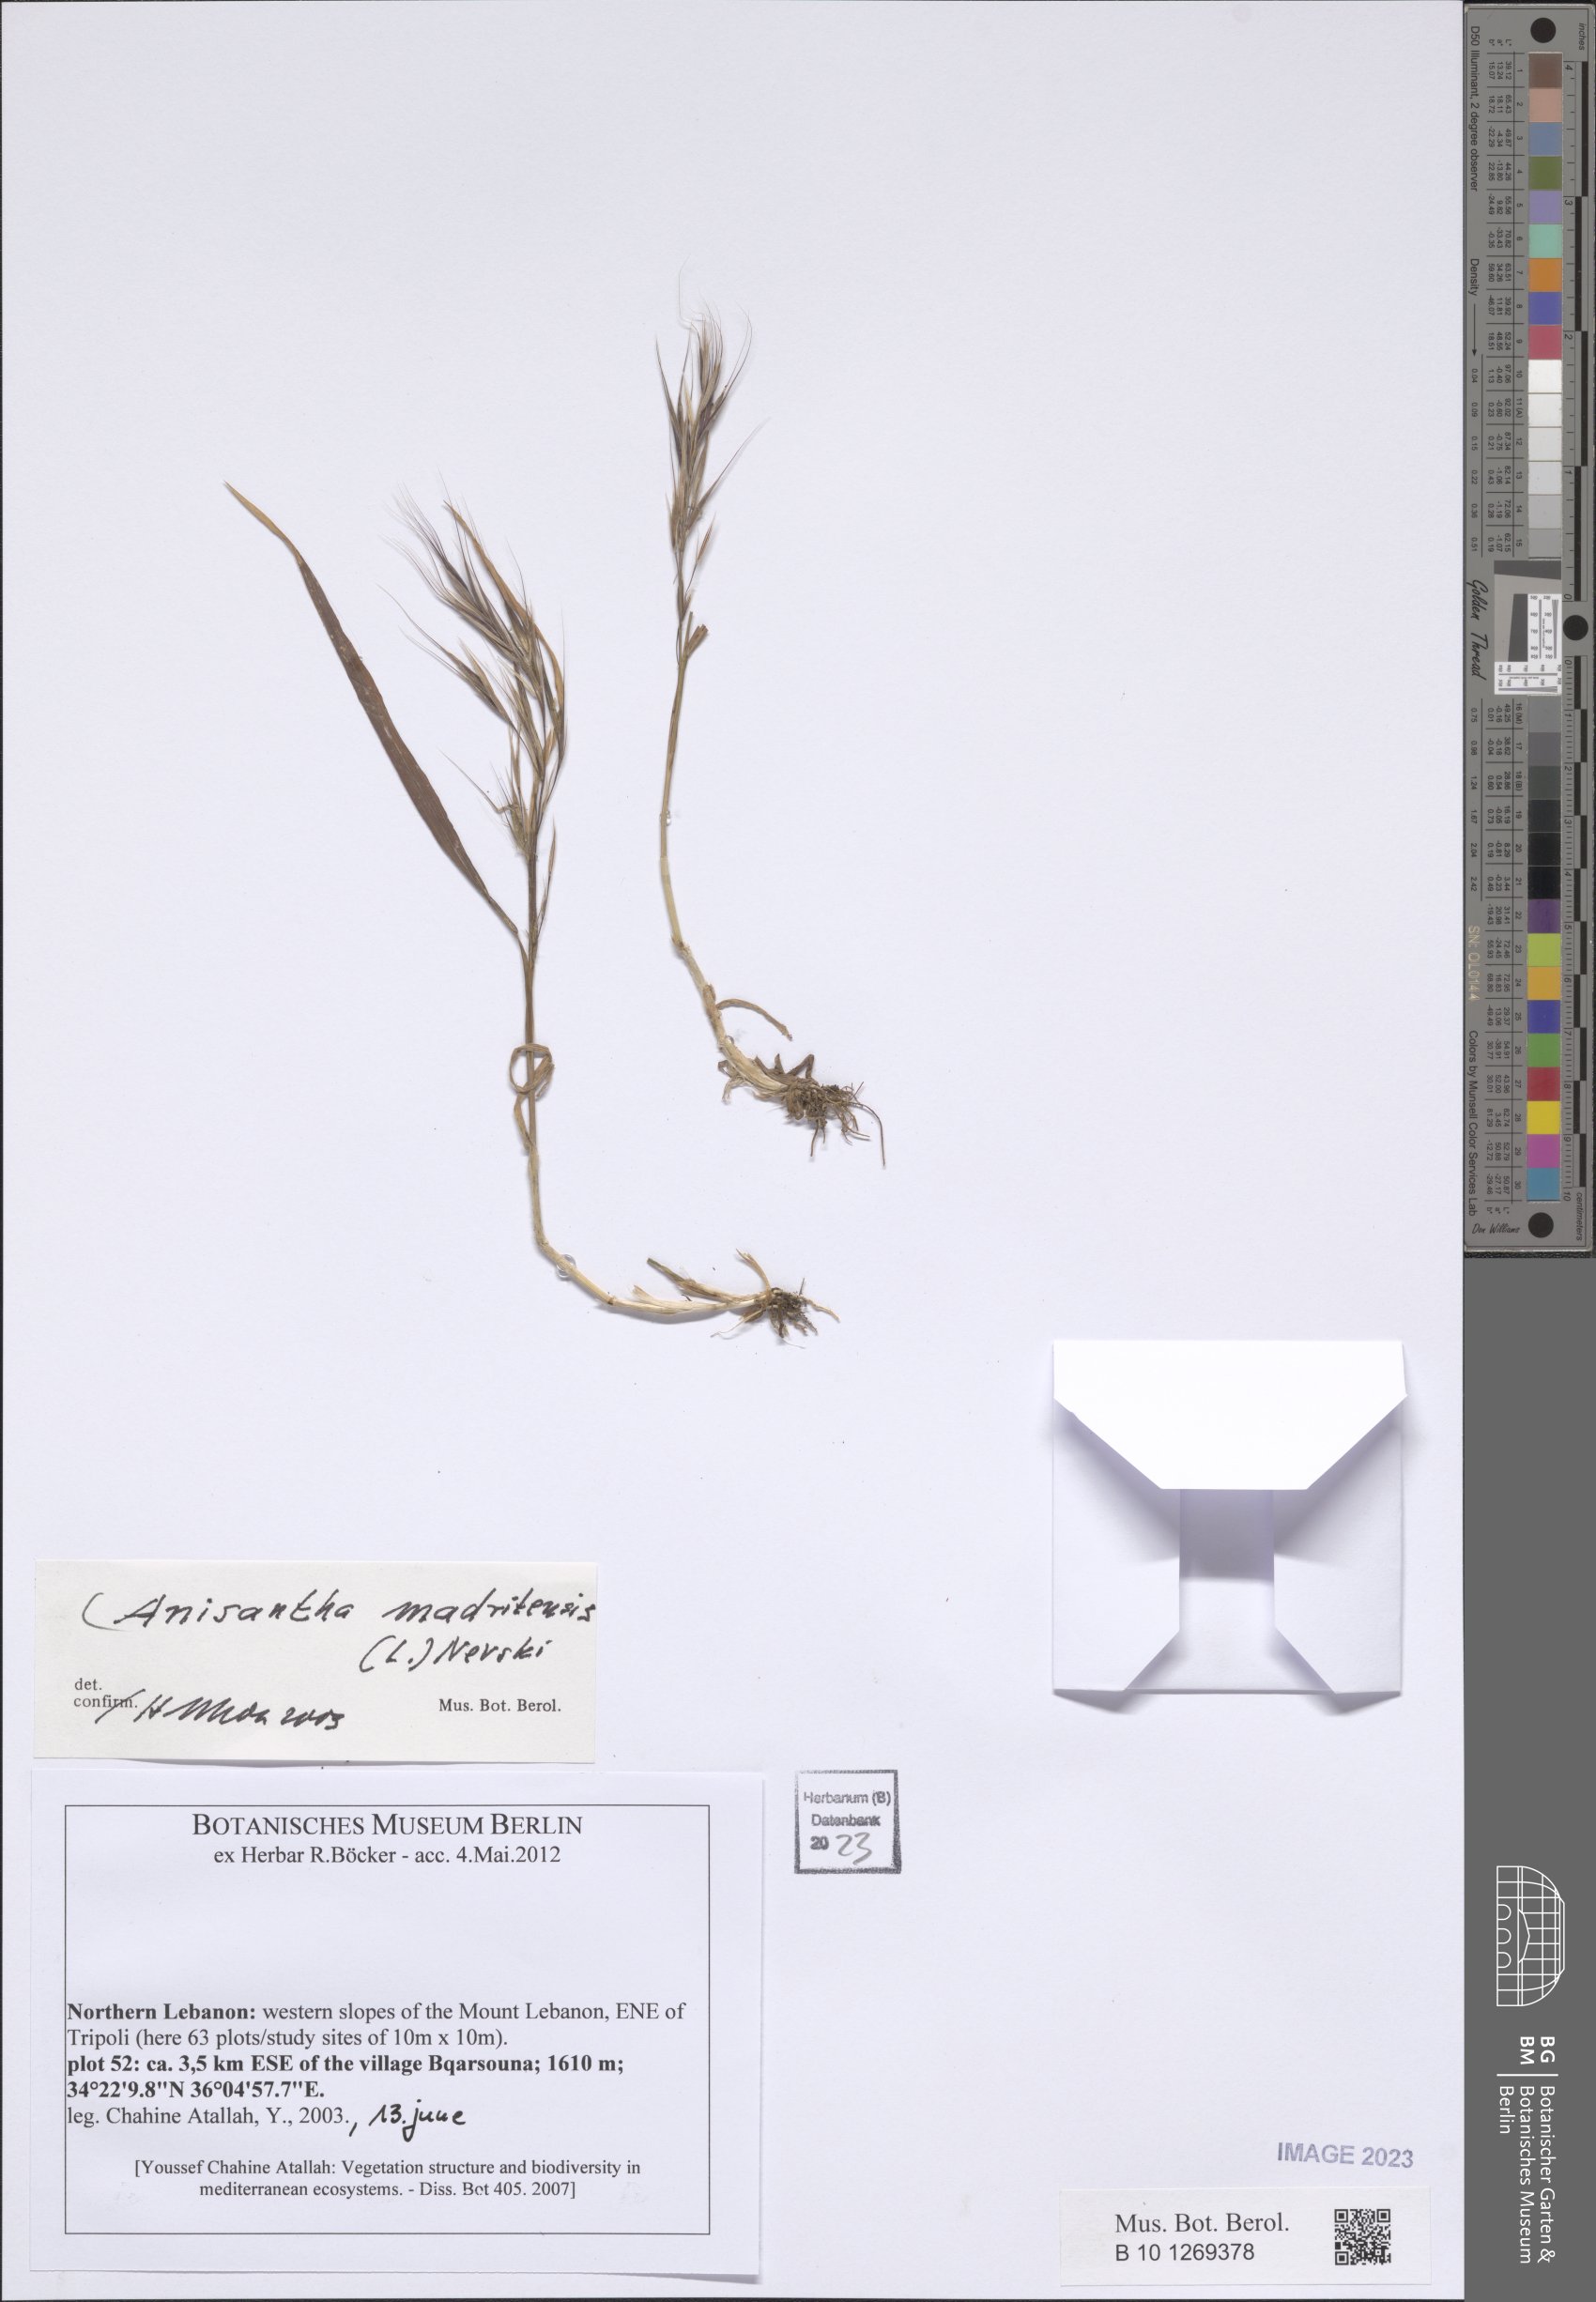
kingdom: Plantae
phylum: Tracheophyta
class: Liliopsida
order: Poales
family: Poaceae
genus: Bromus
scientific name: Bromus madritensis
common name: Compact brome
